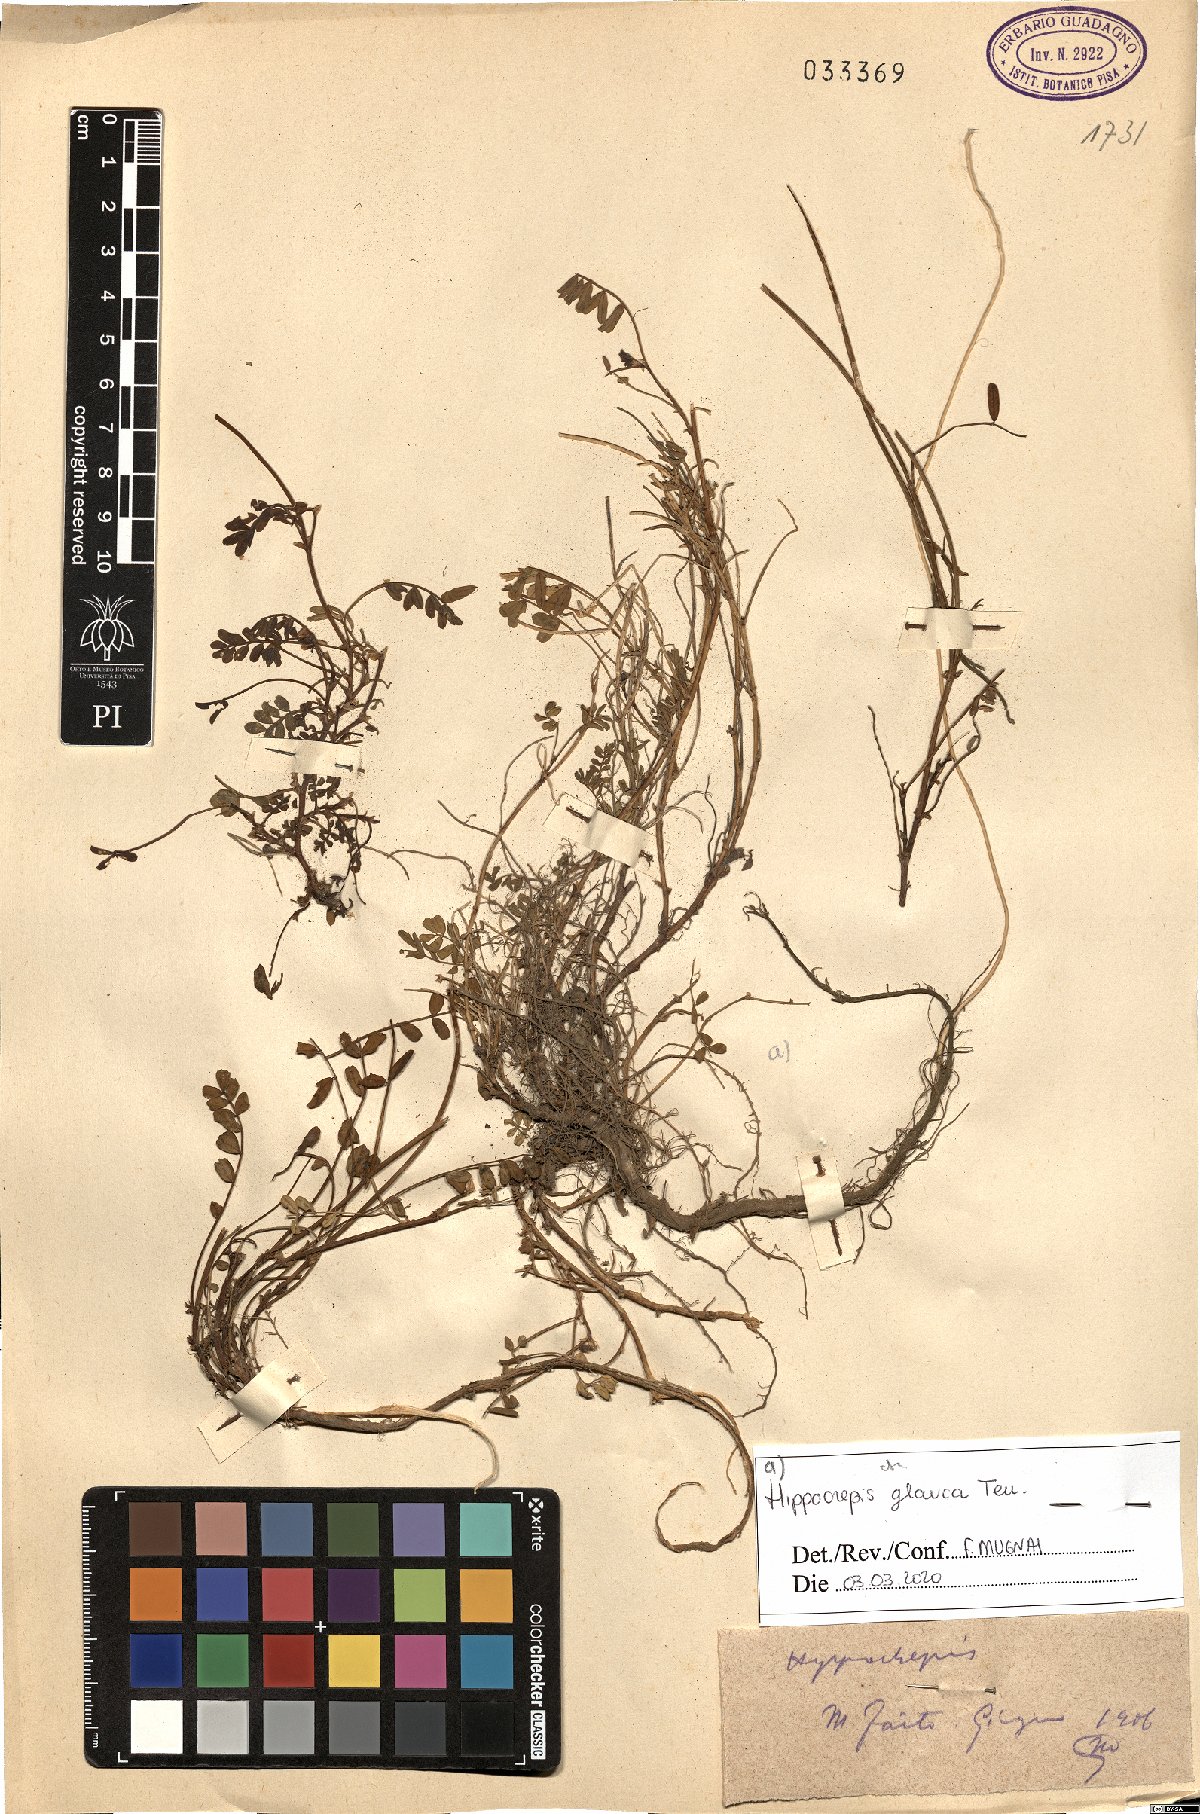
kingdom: Plantae
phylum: Tracheophyta
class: Magnoliopsida
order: Fabales
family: Fabaceae
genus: Hippocrepis
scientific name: Hippocrepis glauca
